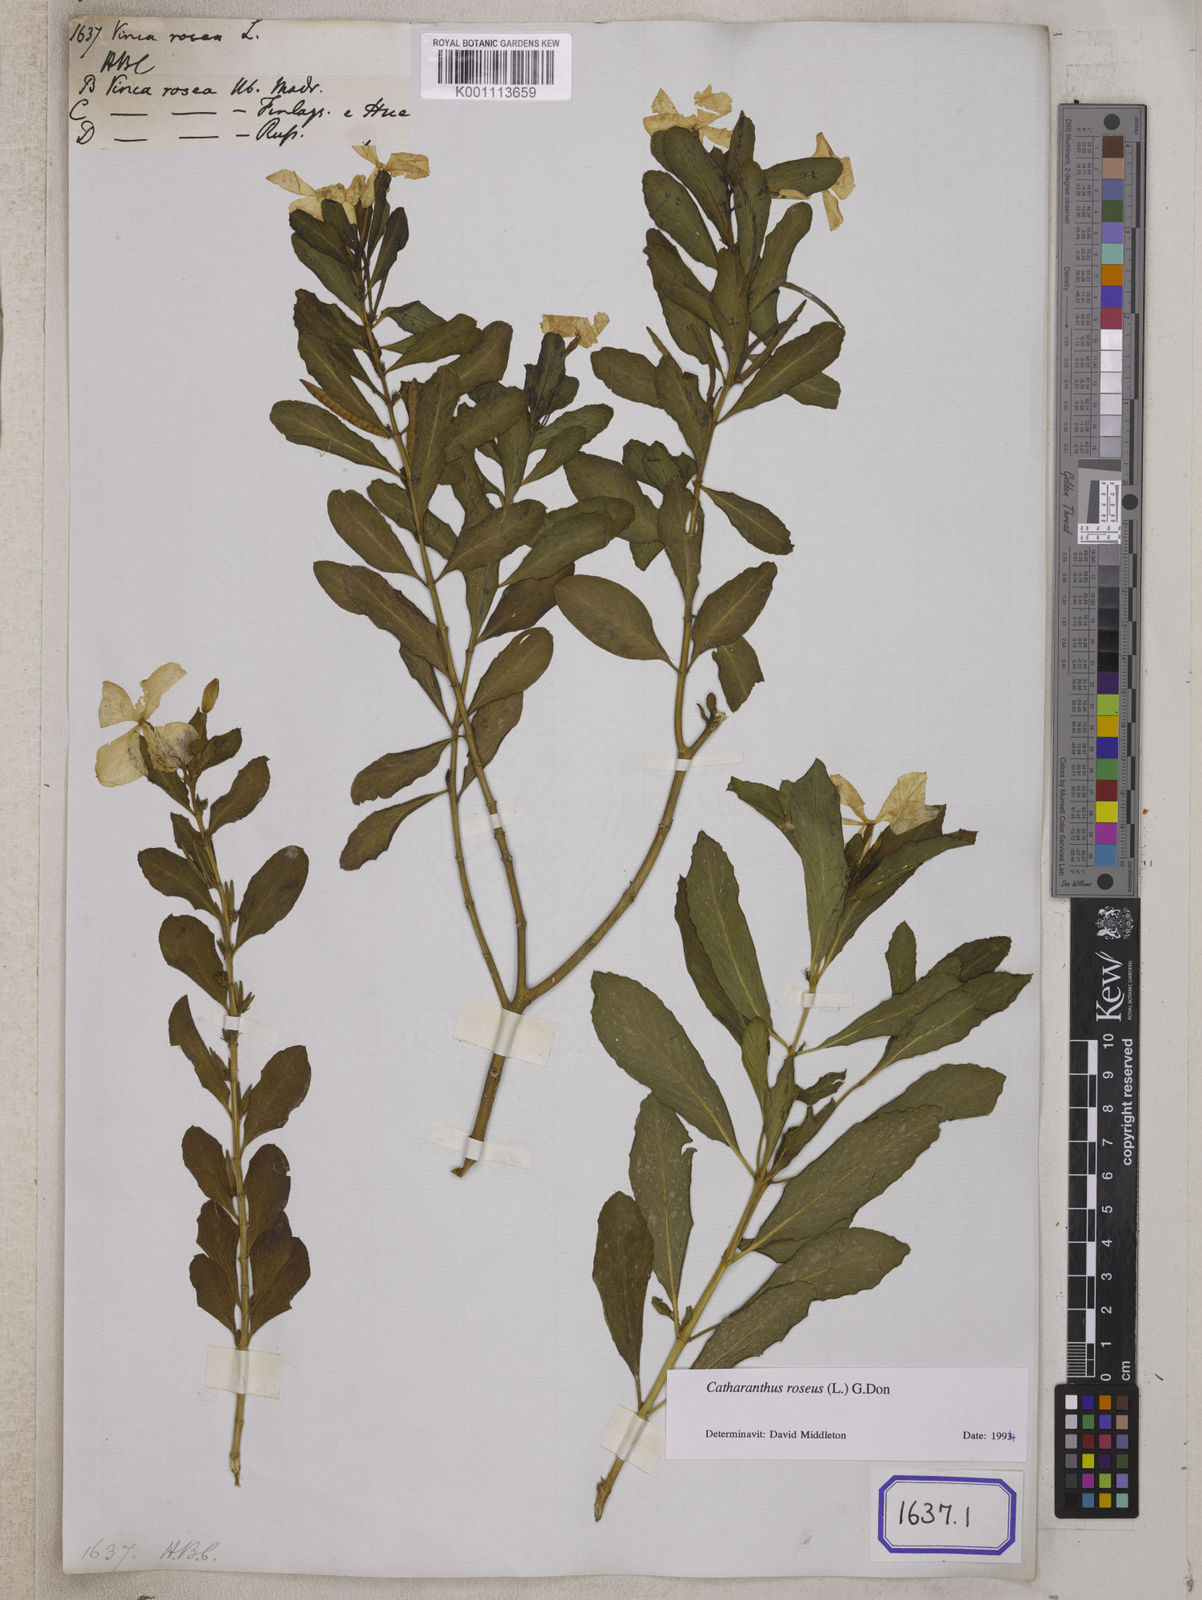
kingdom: Plantae
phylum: Tracheophyta
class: Magnoliopsida
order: Gentianales
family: Apocynaceae
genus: Catharanthus
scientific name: Catharanthus roseus
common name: Madagascar periwinkle
